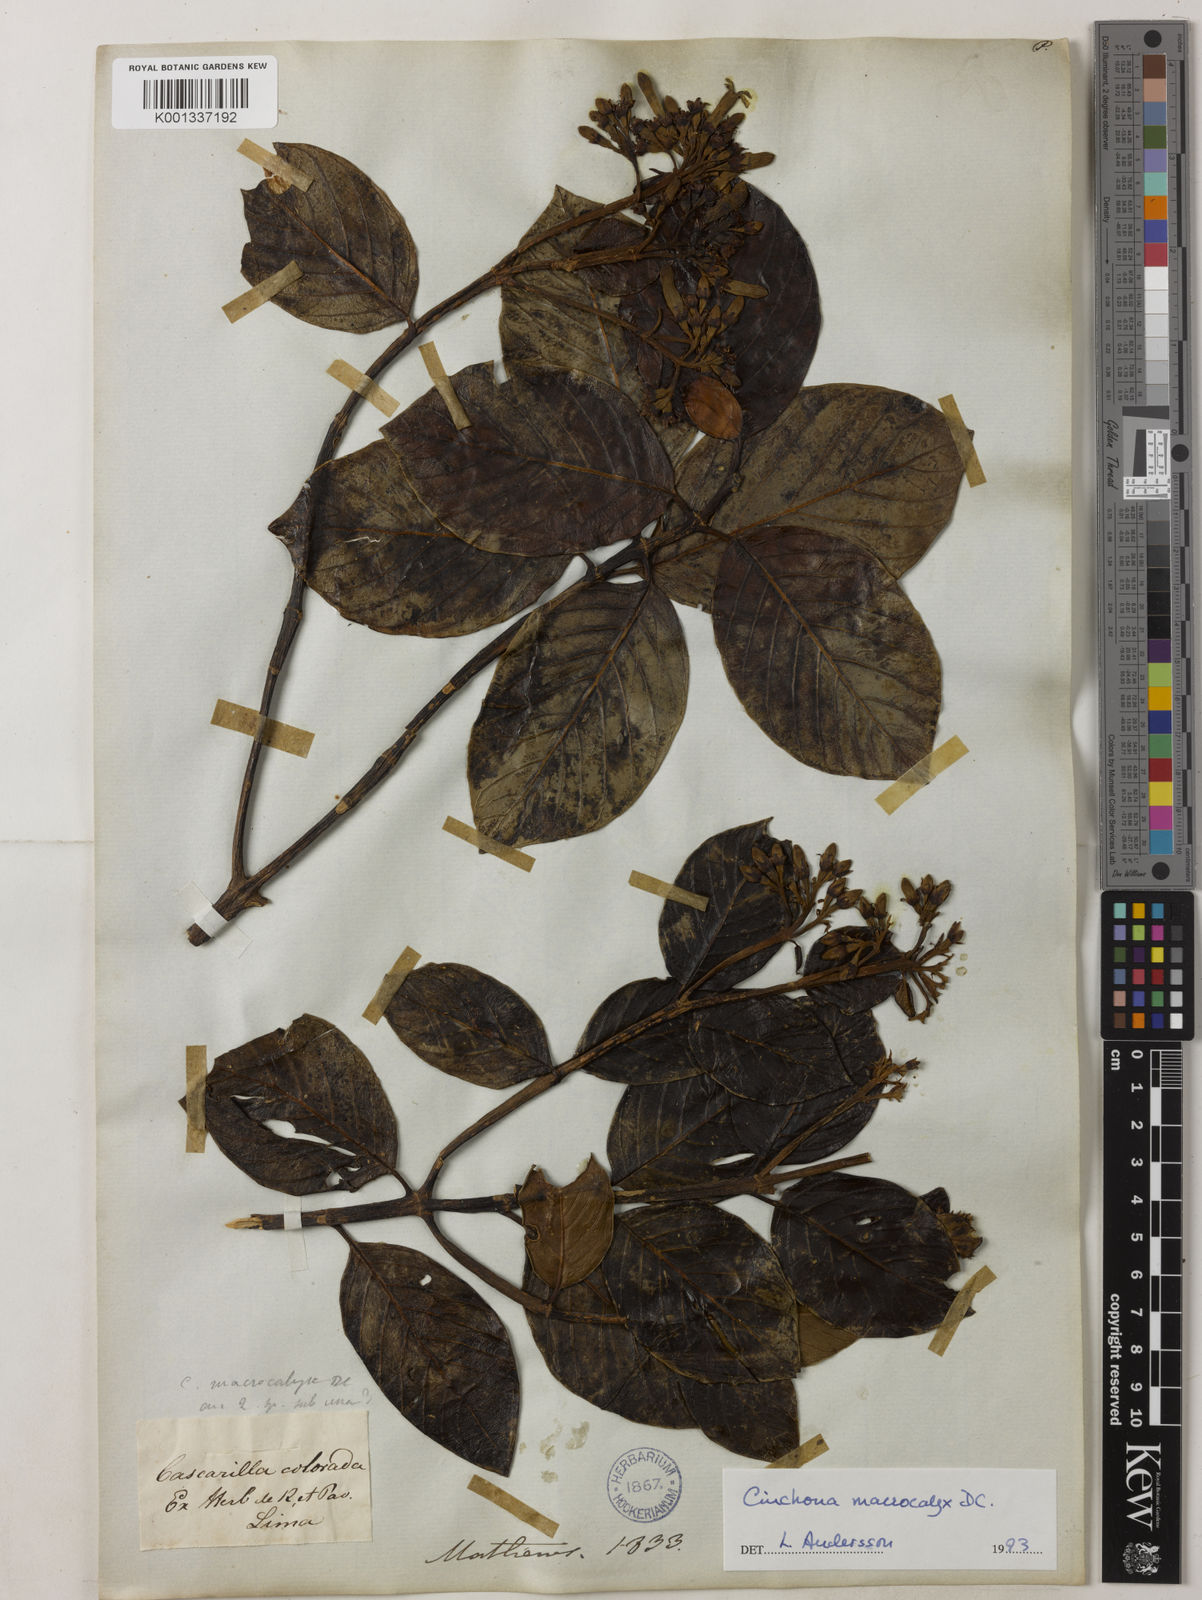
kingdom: Plantae
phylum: Tracheophyta
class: Magnoliopsida
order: Gentianales
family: Rubiaceae
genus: Cinchona
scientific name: Cinchona macrocalyx
